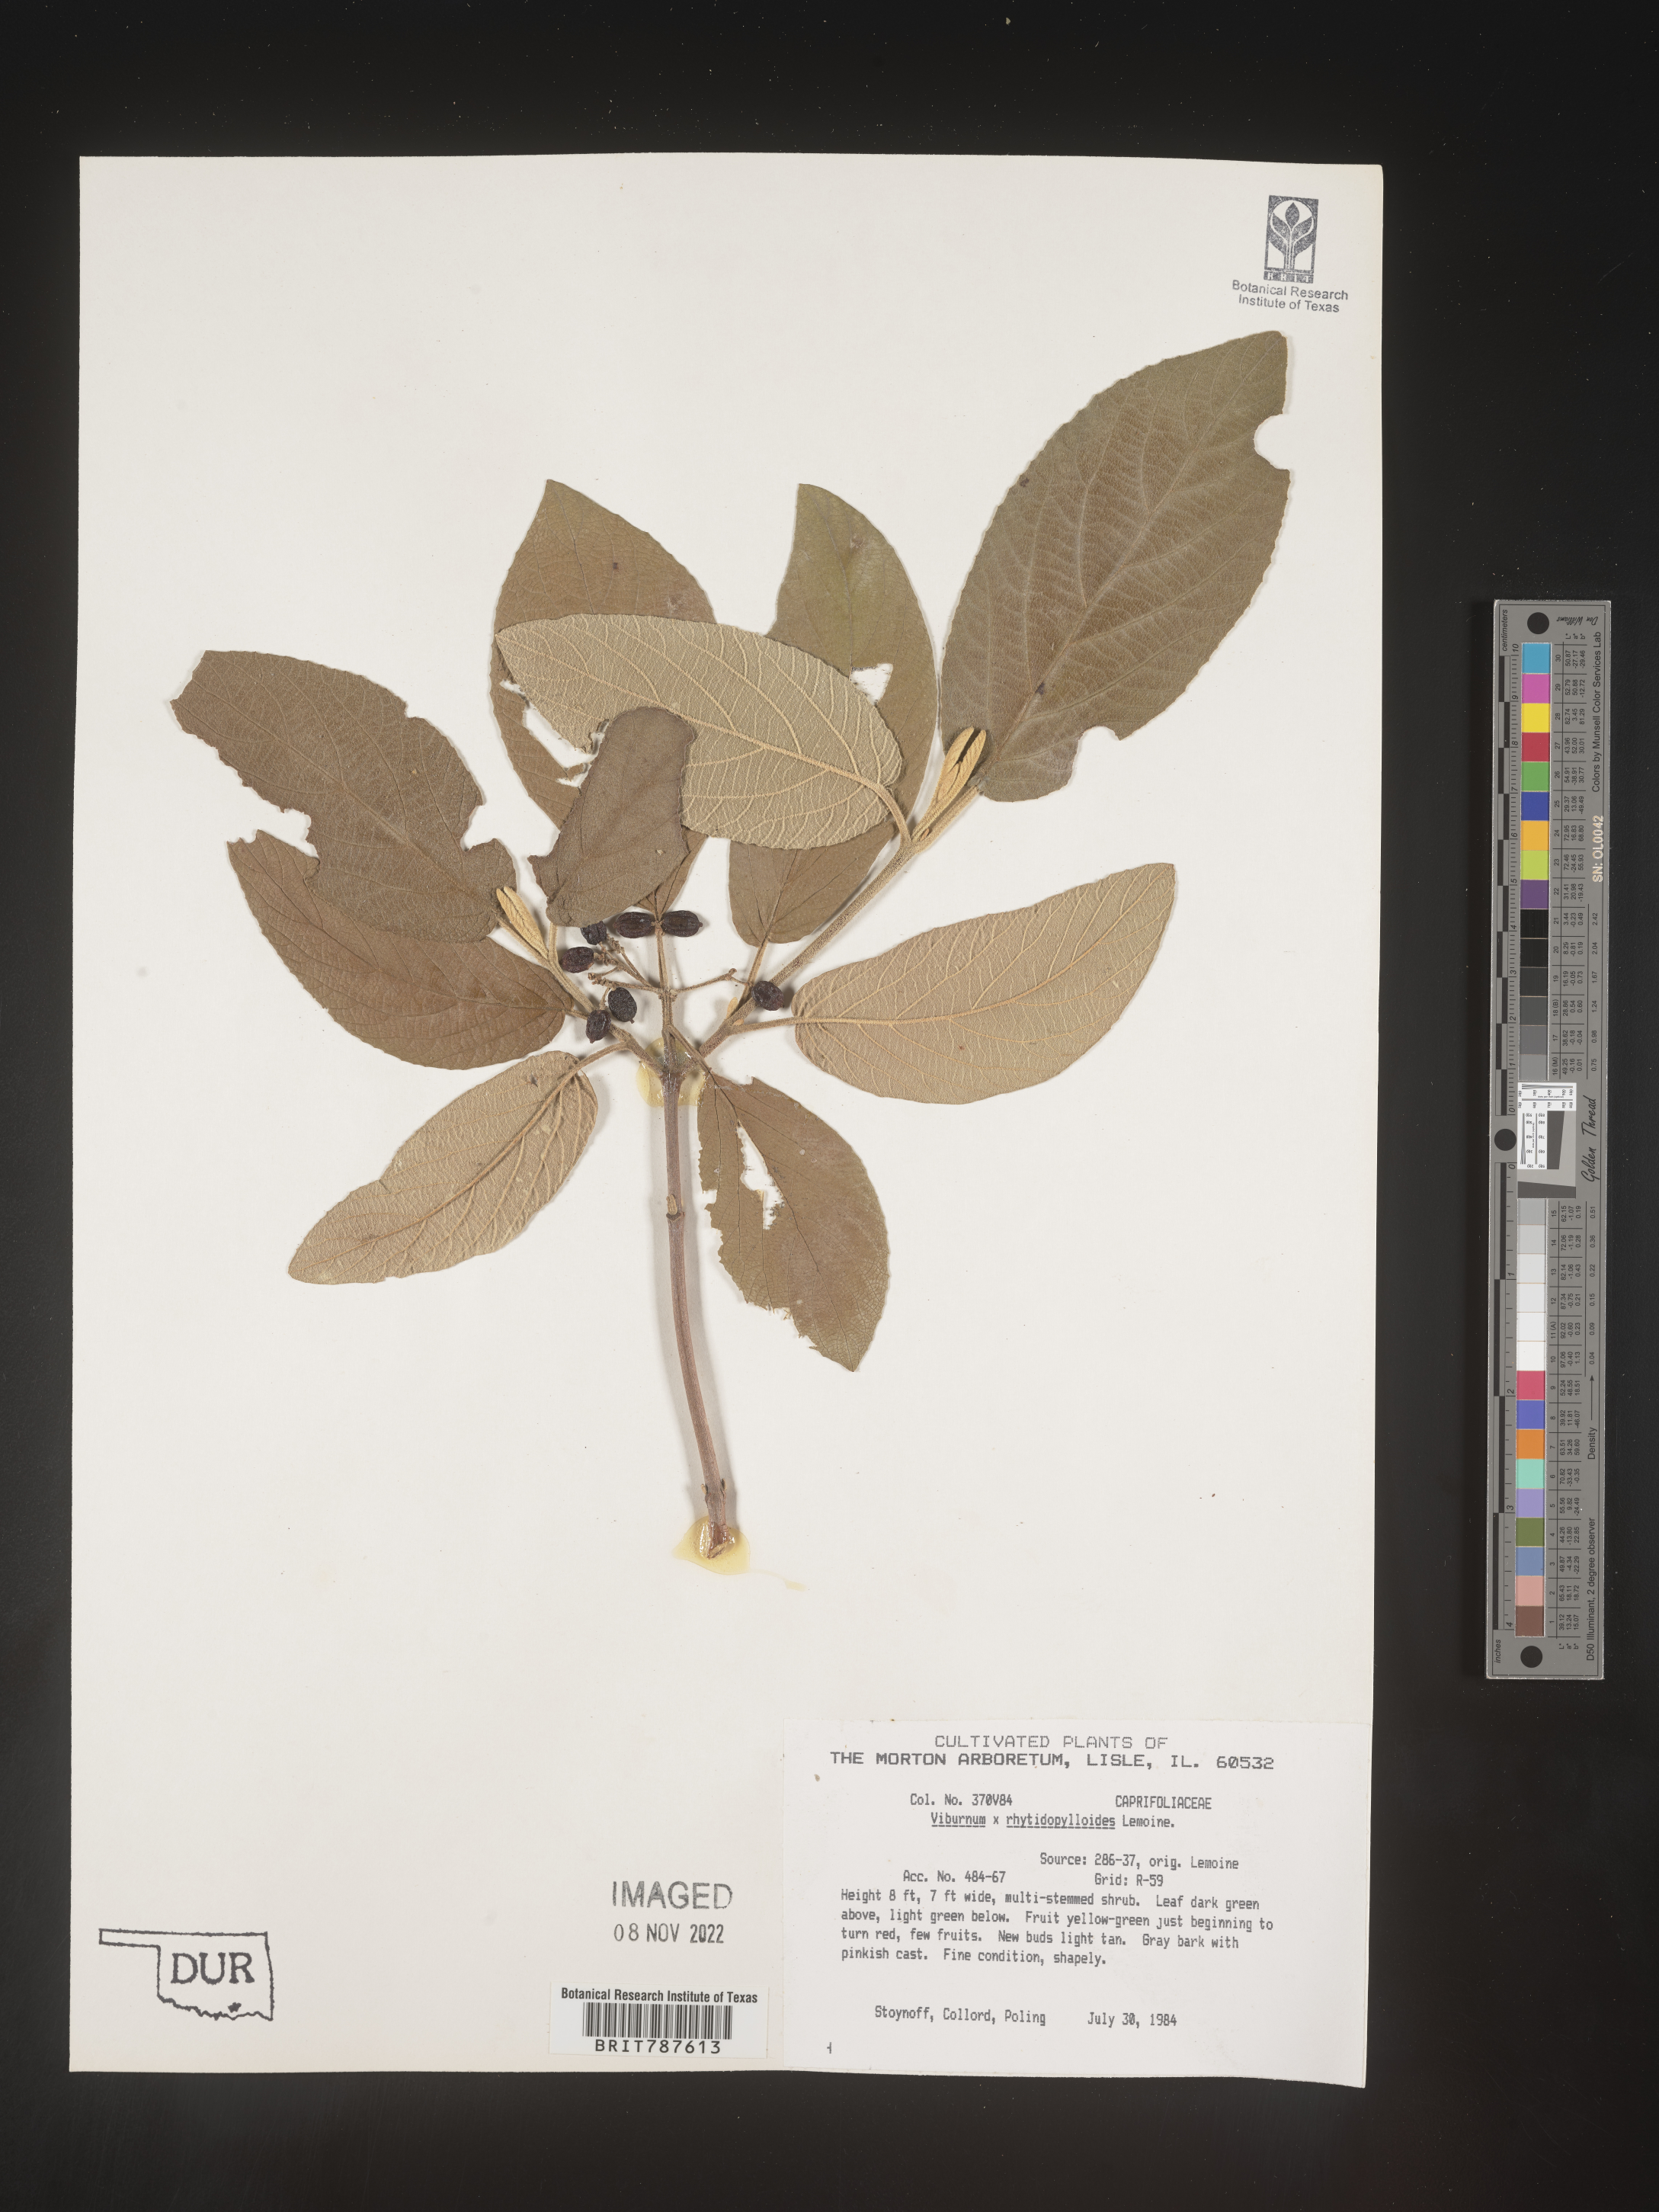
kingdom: Plantae
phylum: Tracheophyta
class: Magnoliopsida
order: Dipsacales
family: Viburnaceae
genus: Viburnum
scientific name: Viburnum
